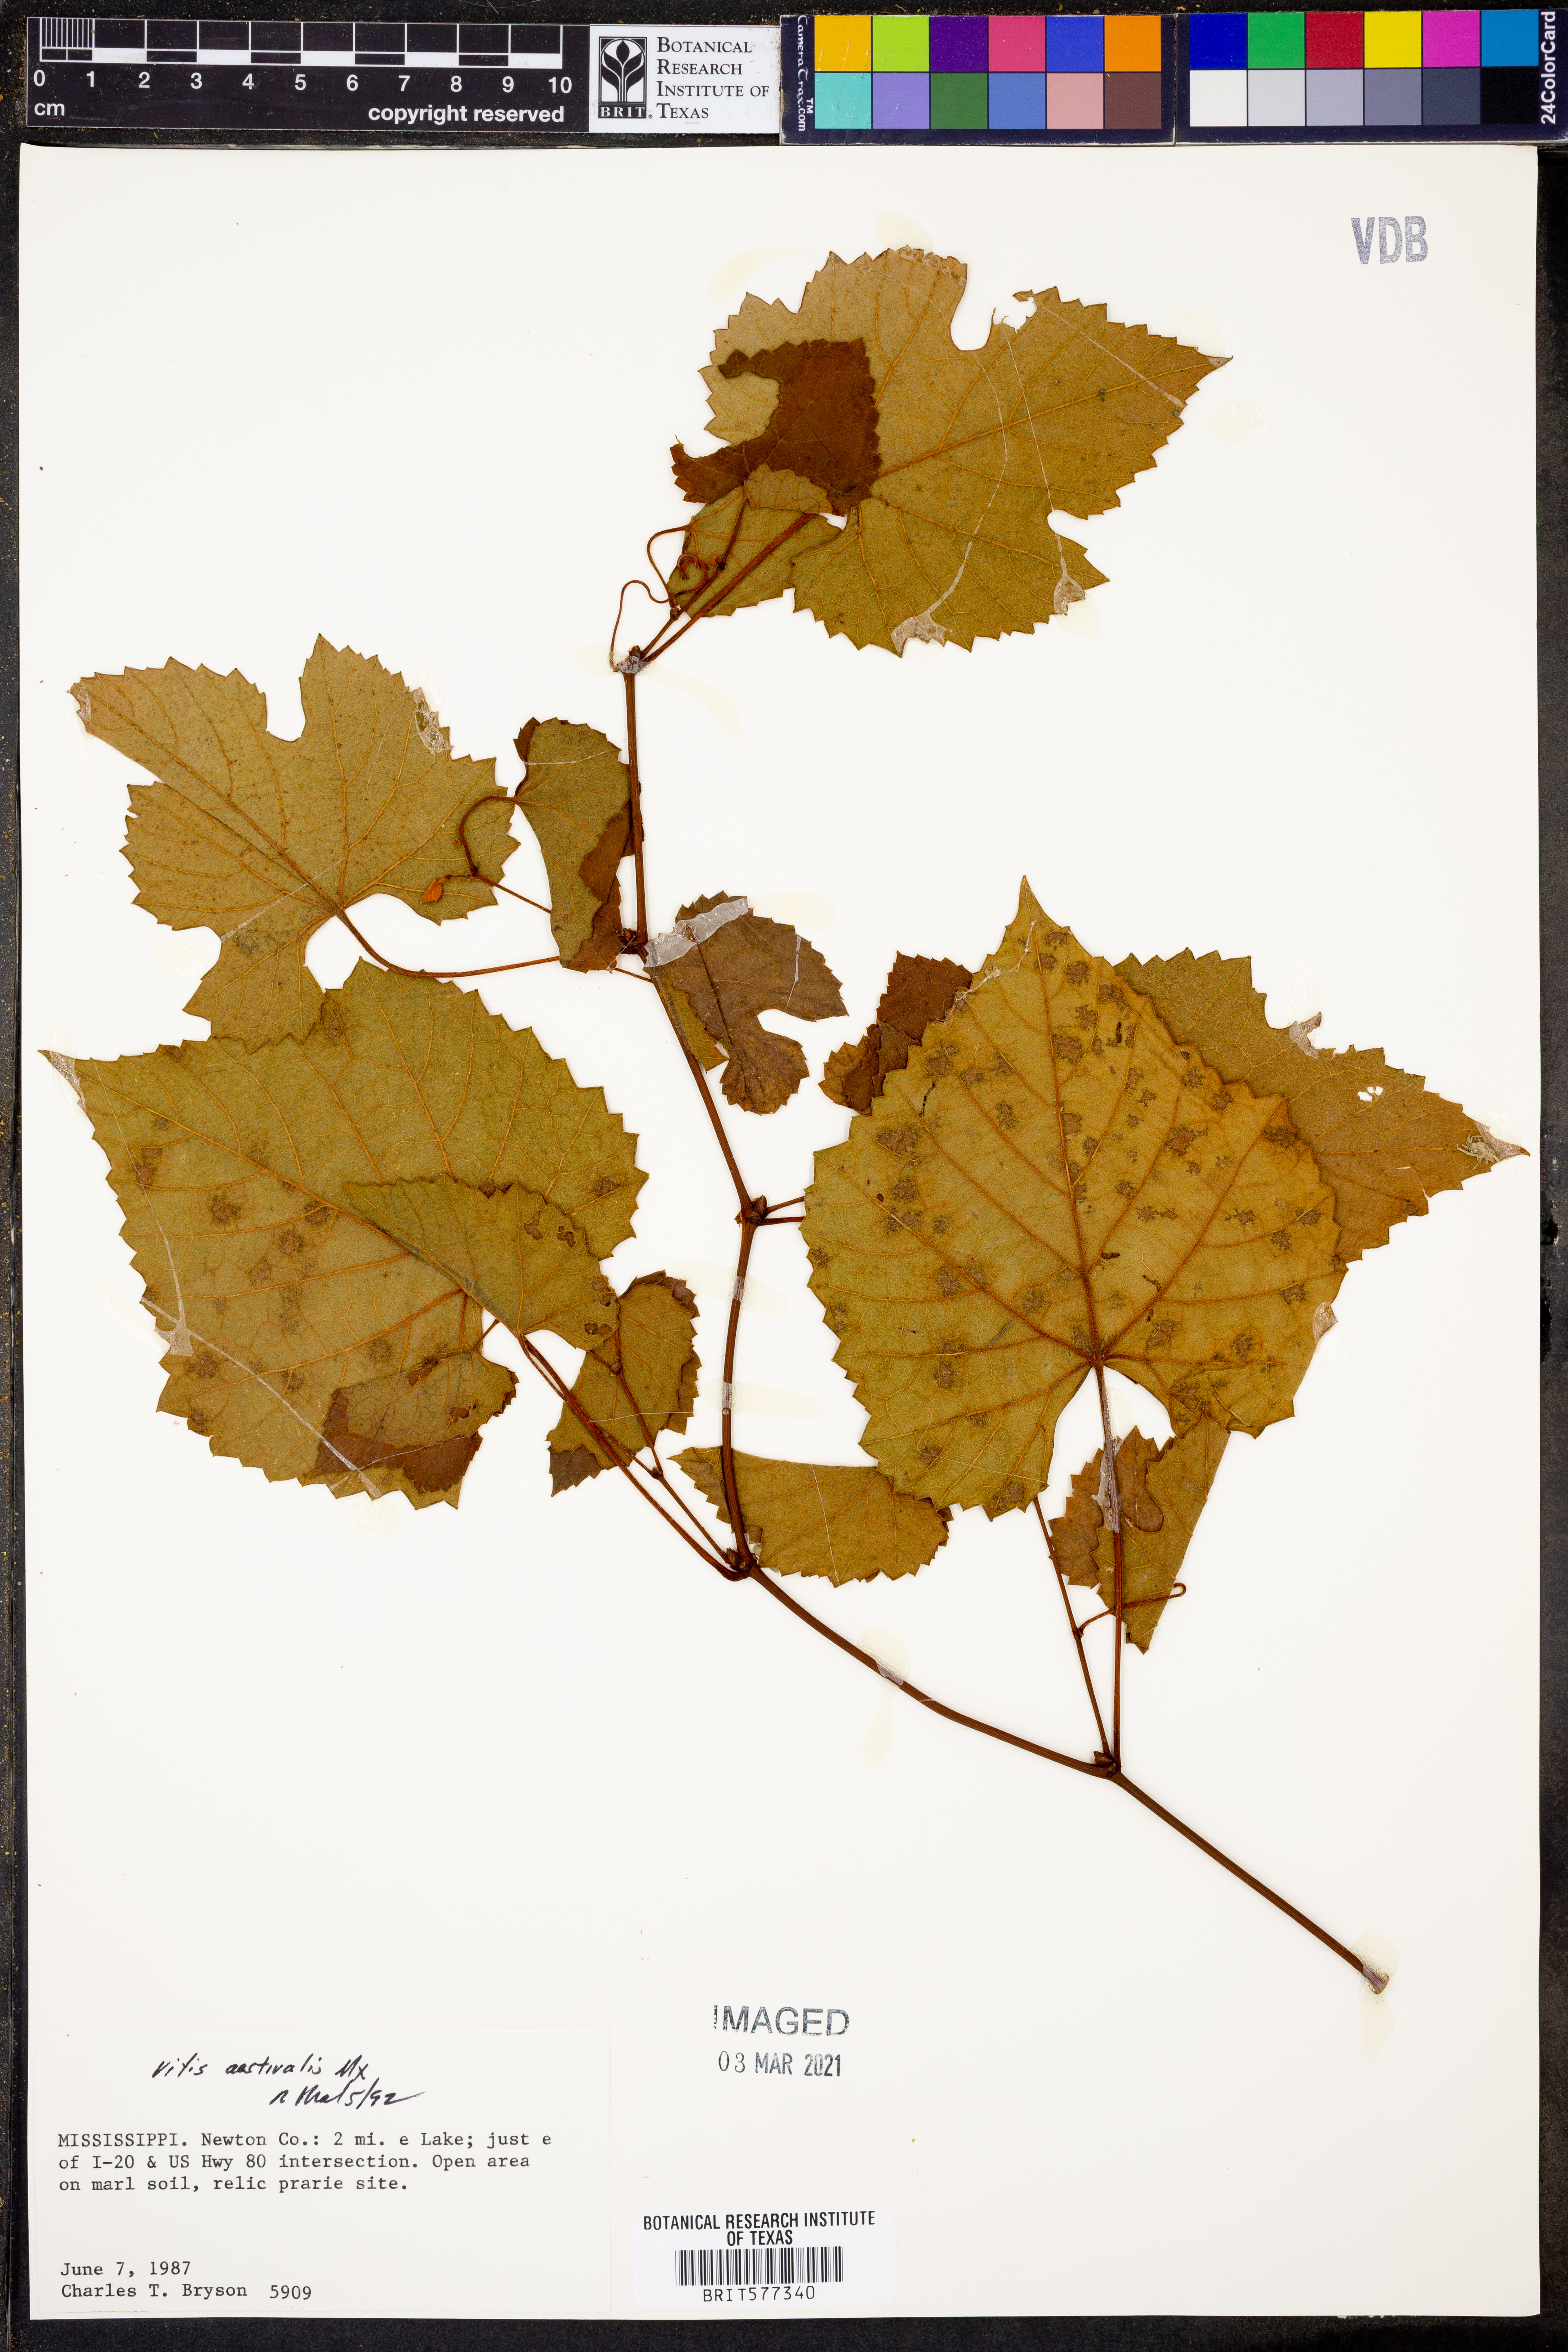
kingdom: Plantae
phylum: Tracheophyta
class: Magnoliopsida
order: Vitales
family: Vitaceae
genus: Vitis
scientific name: Vitis aestivalis
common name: Pigeon grape
